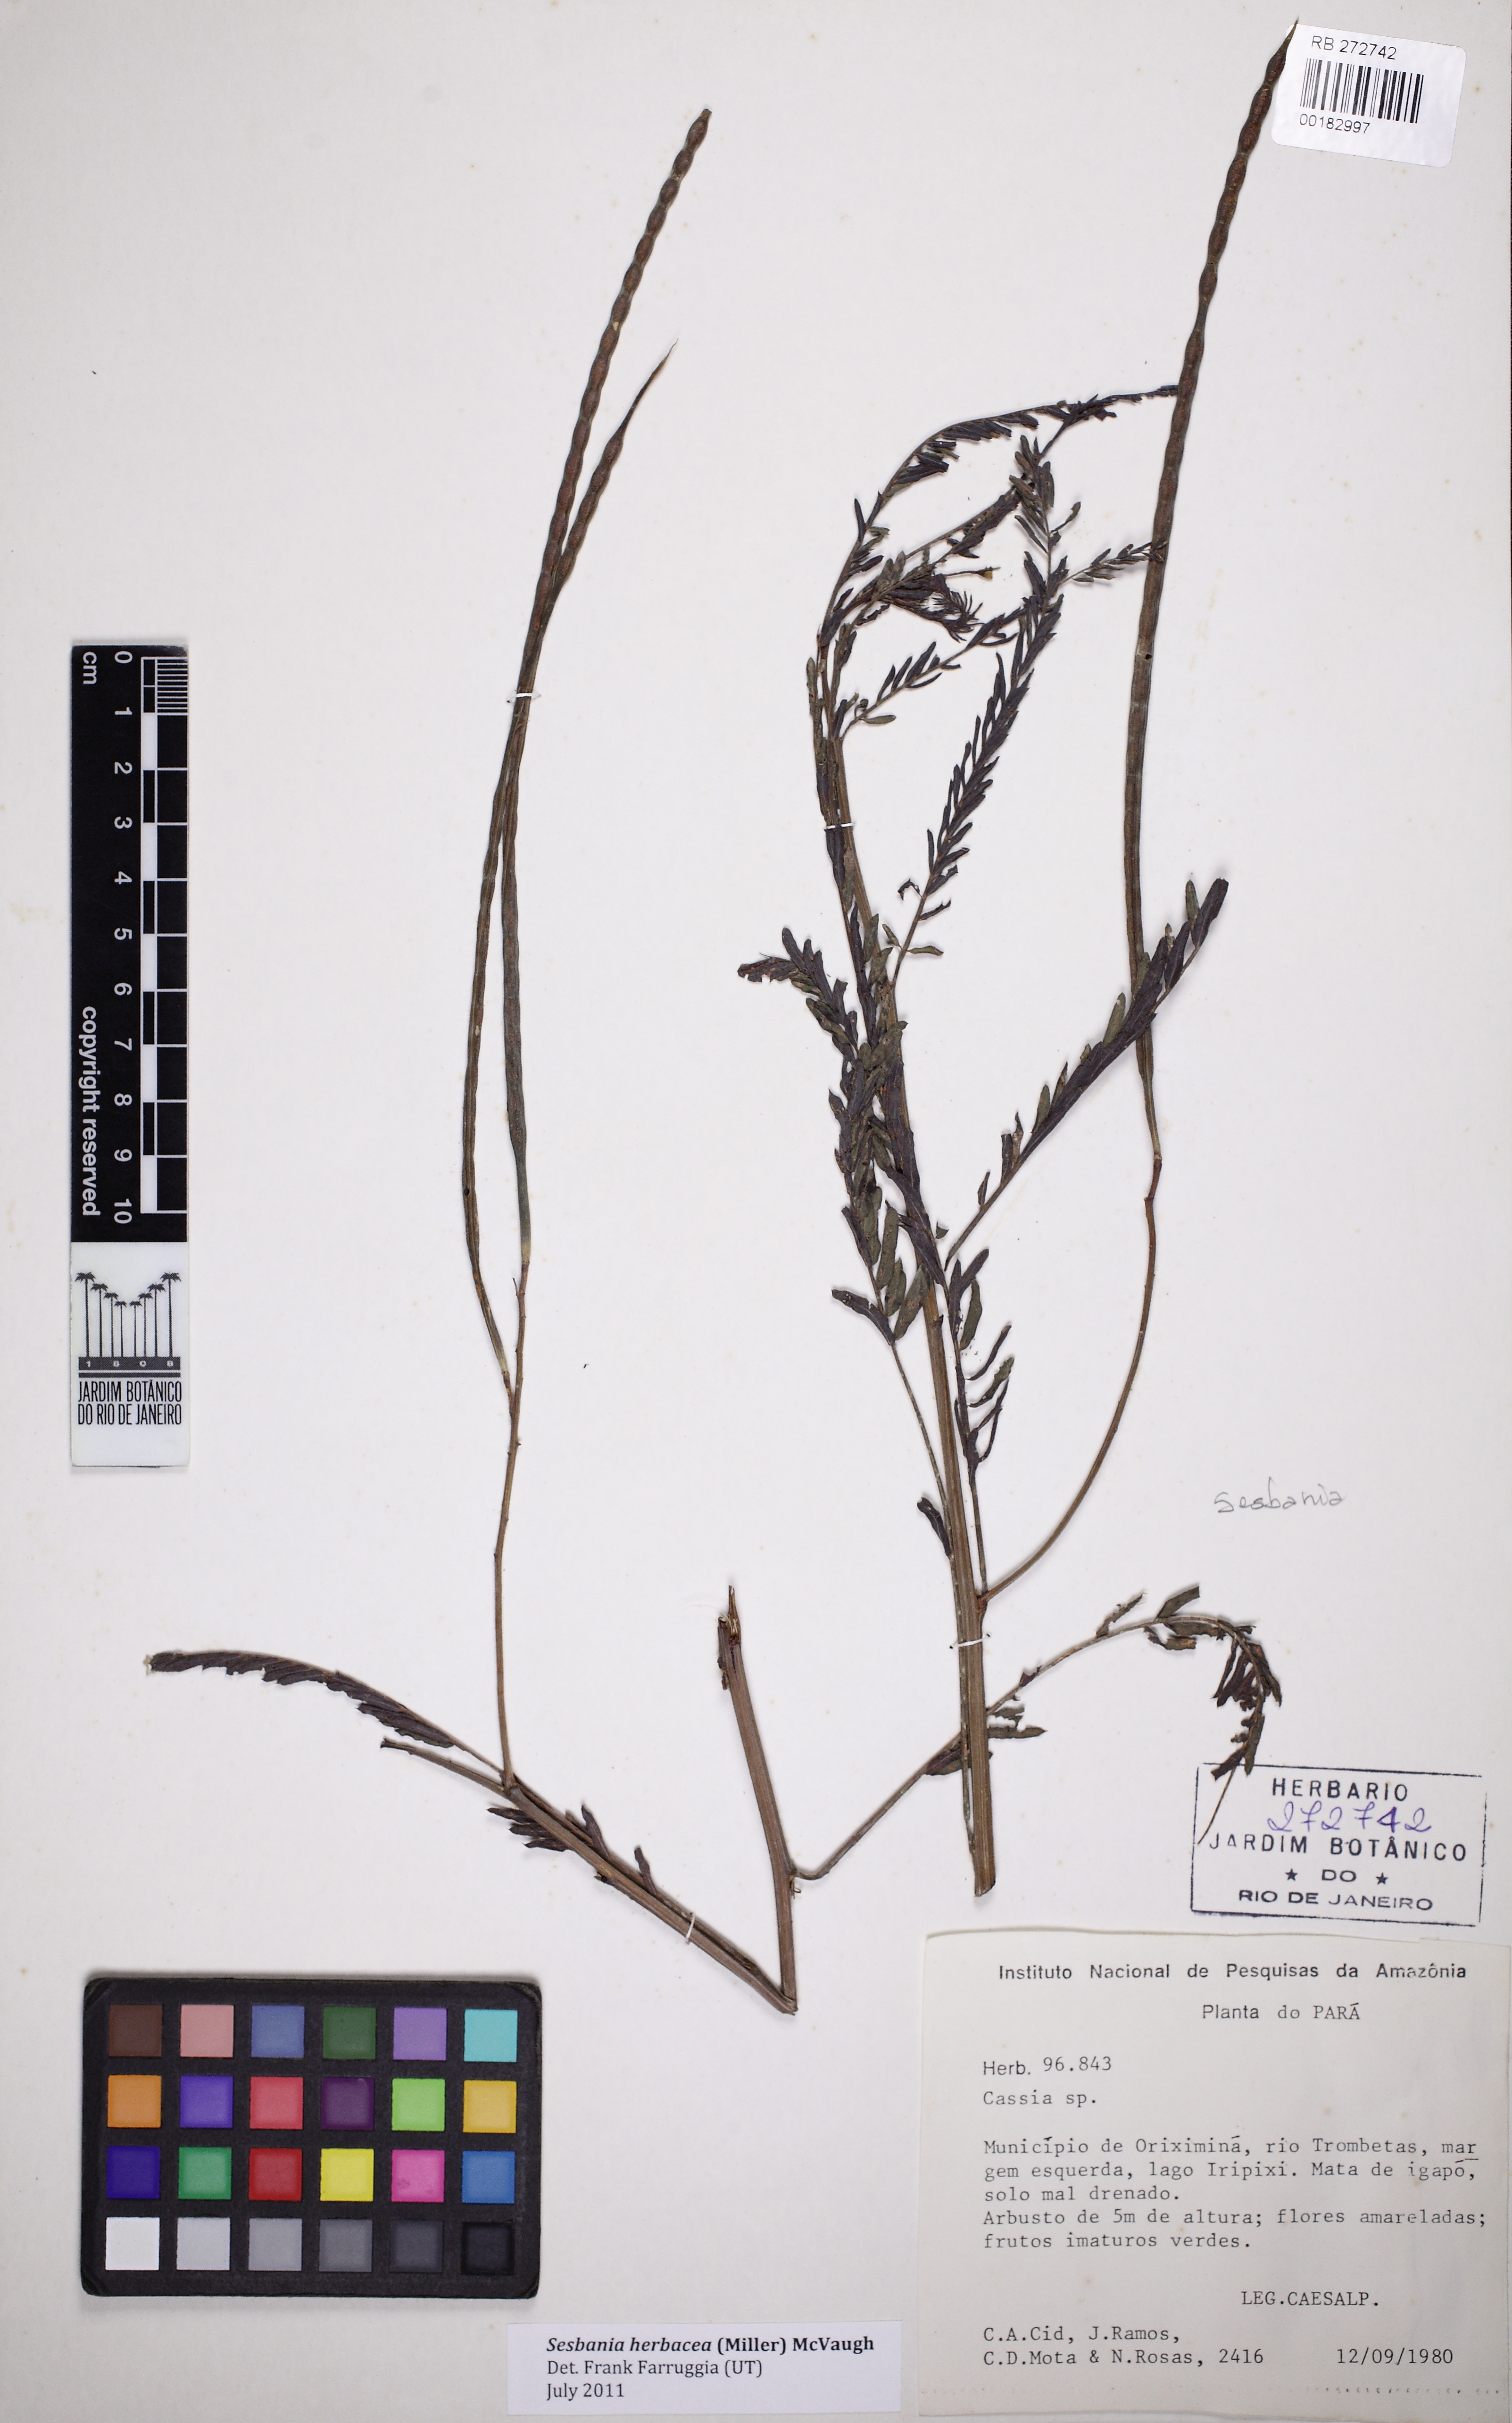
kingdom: Plantae
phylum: Tracheophyta
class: Magnoliopsida
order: Fabales
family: Fabaceae
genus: Sesbania
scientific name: Sesbania virgata
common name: Wand riverhemp
